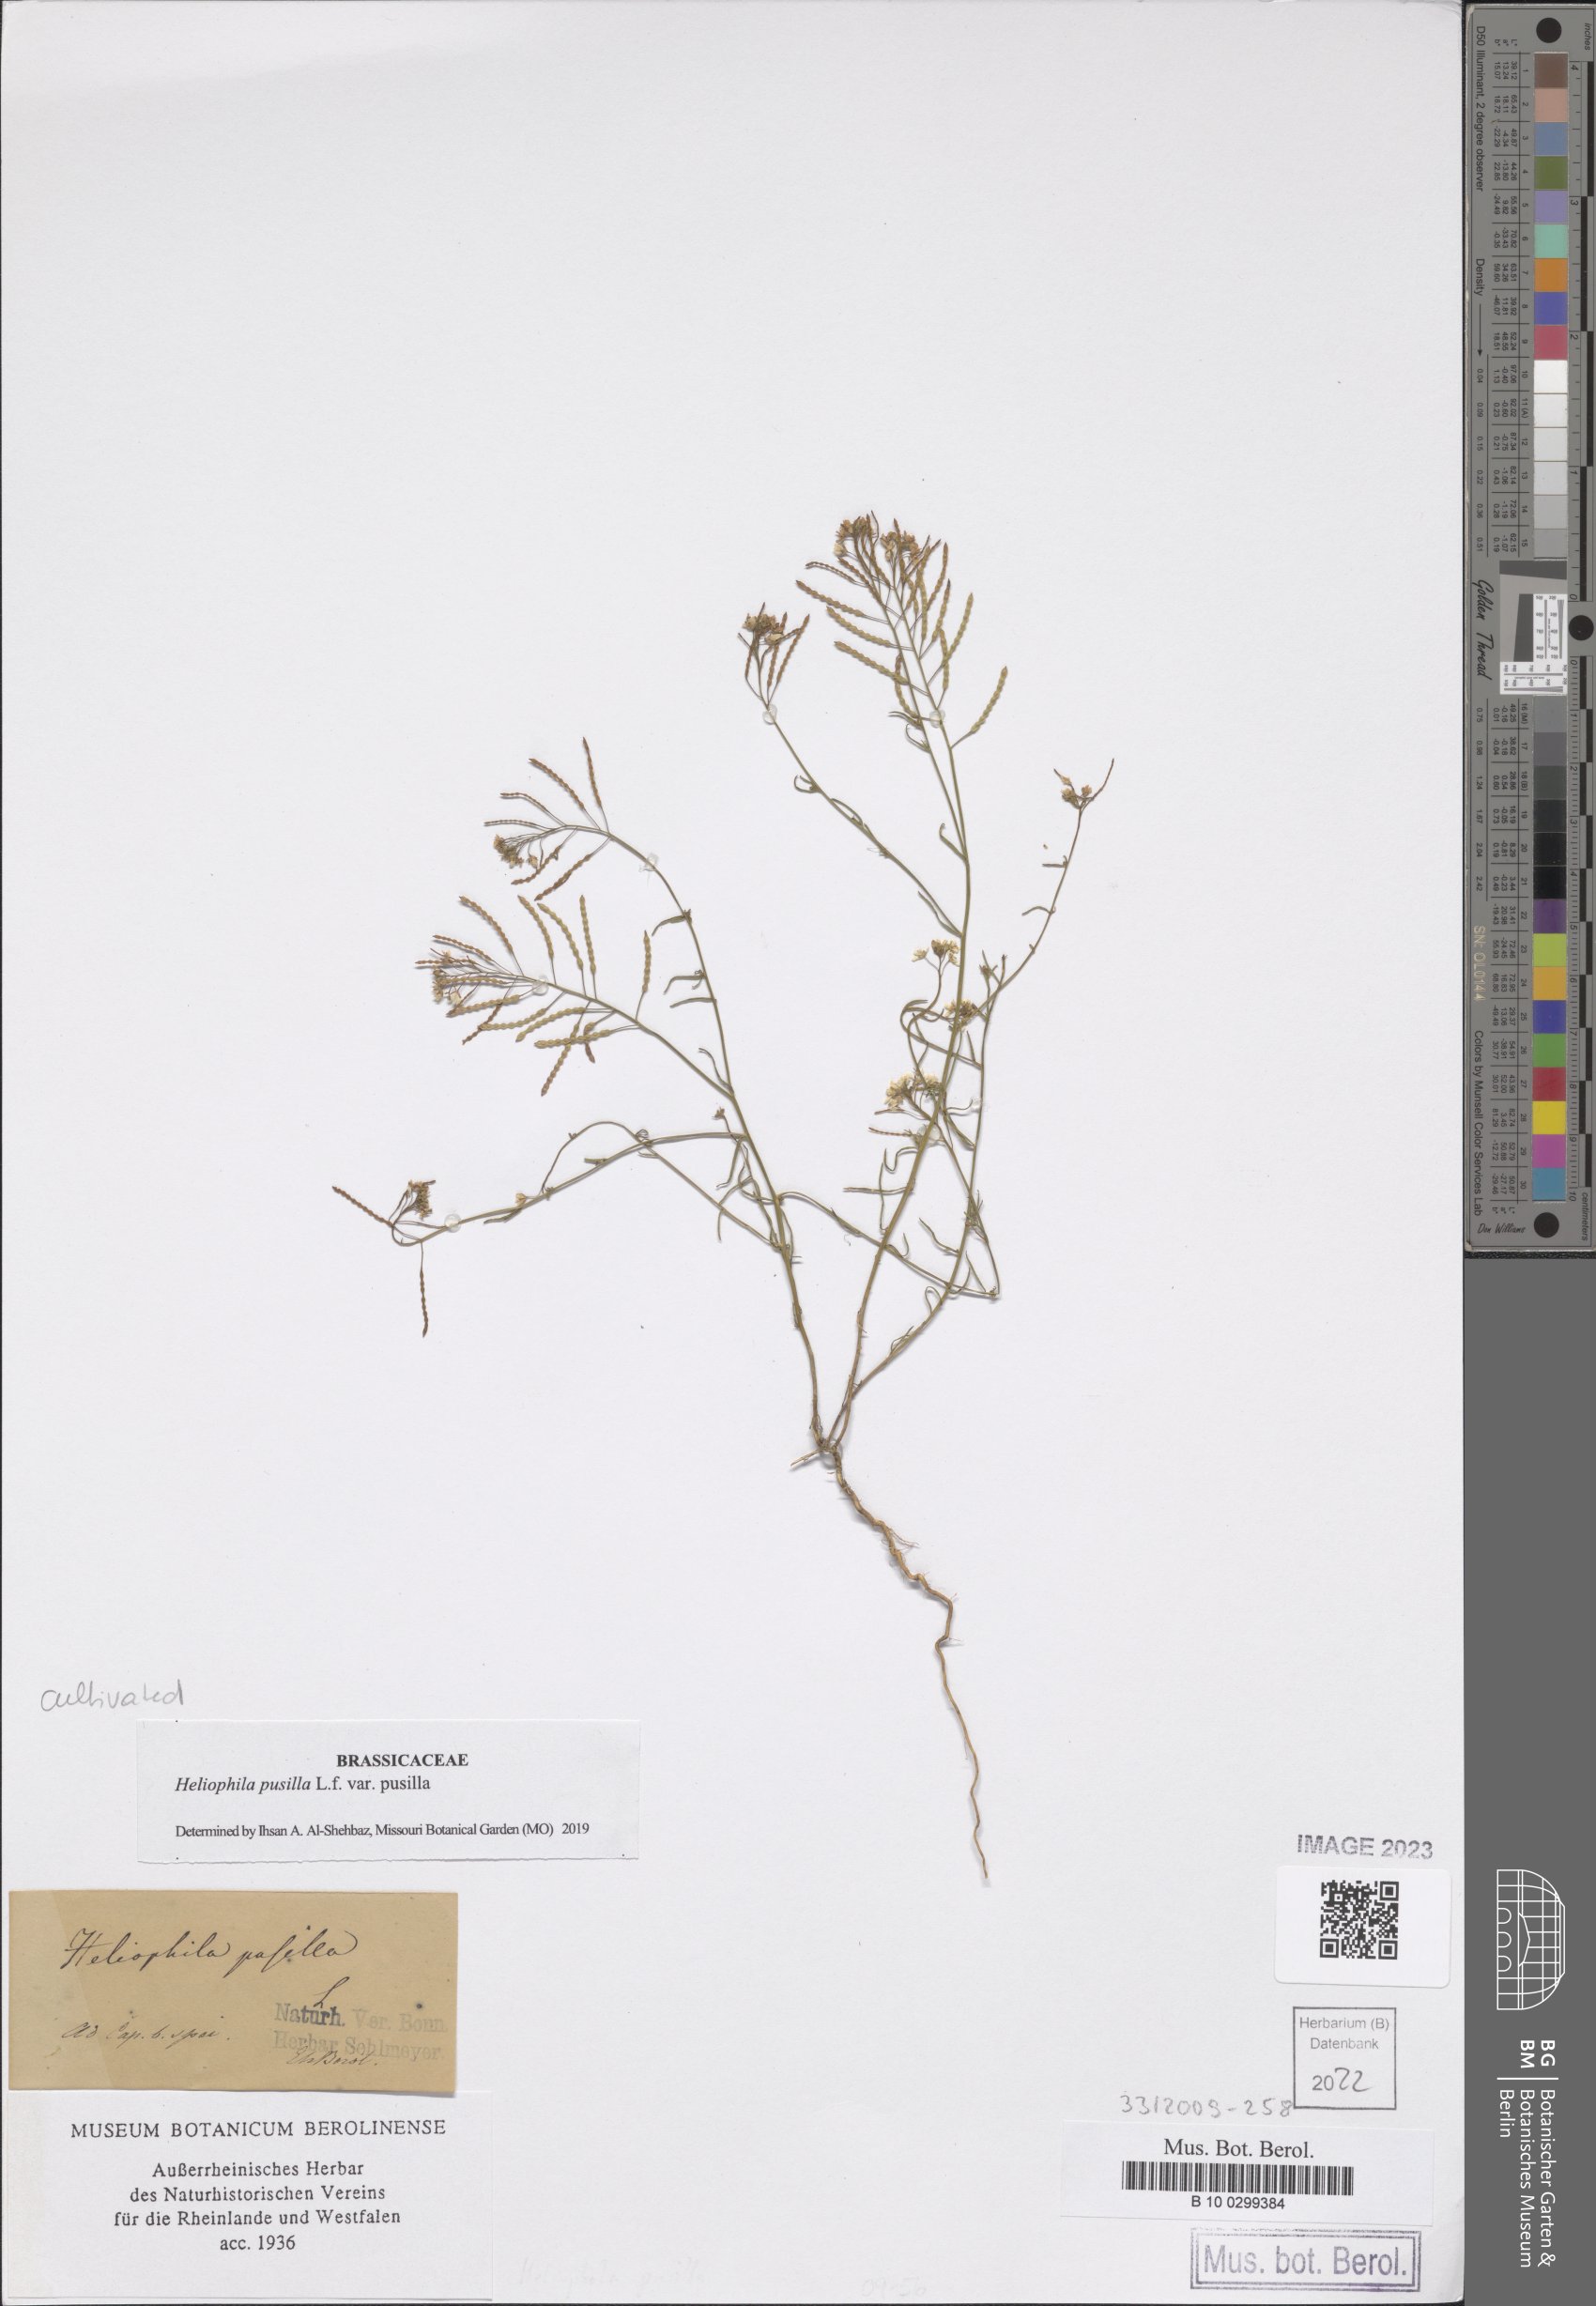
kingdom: Plantae
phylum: Tracheophyta
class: Magnoliopsida
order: Brassicales
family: Brassicaceae
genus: Heliophila
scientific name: Heliophila pusilla
